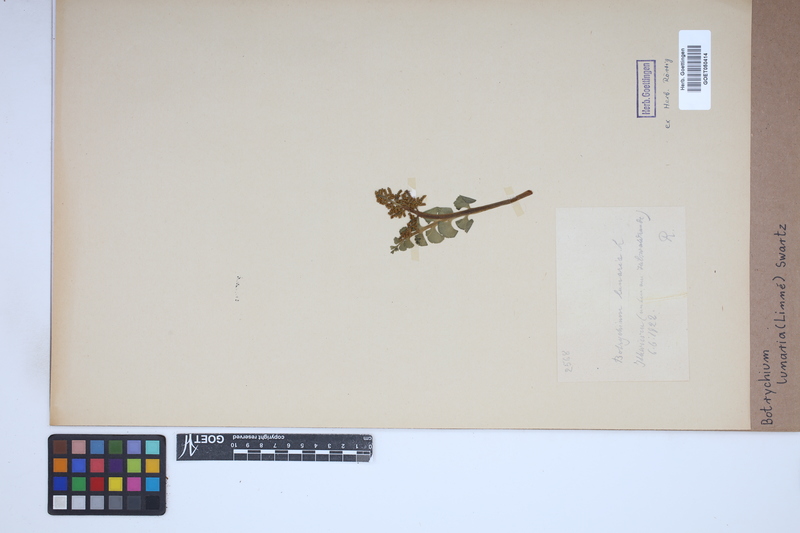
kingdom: Plantae
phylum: Tracheophyta
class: Polypodiopsida
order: Ophioglossales
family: Ophioglossaceae
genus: Botrychium
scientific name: Botrychium lunaria
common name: Moonwort
